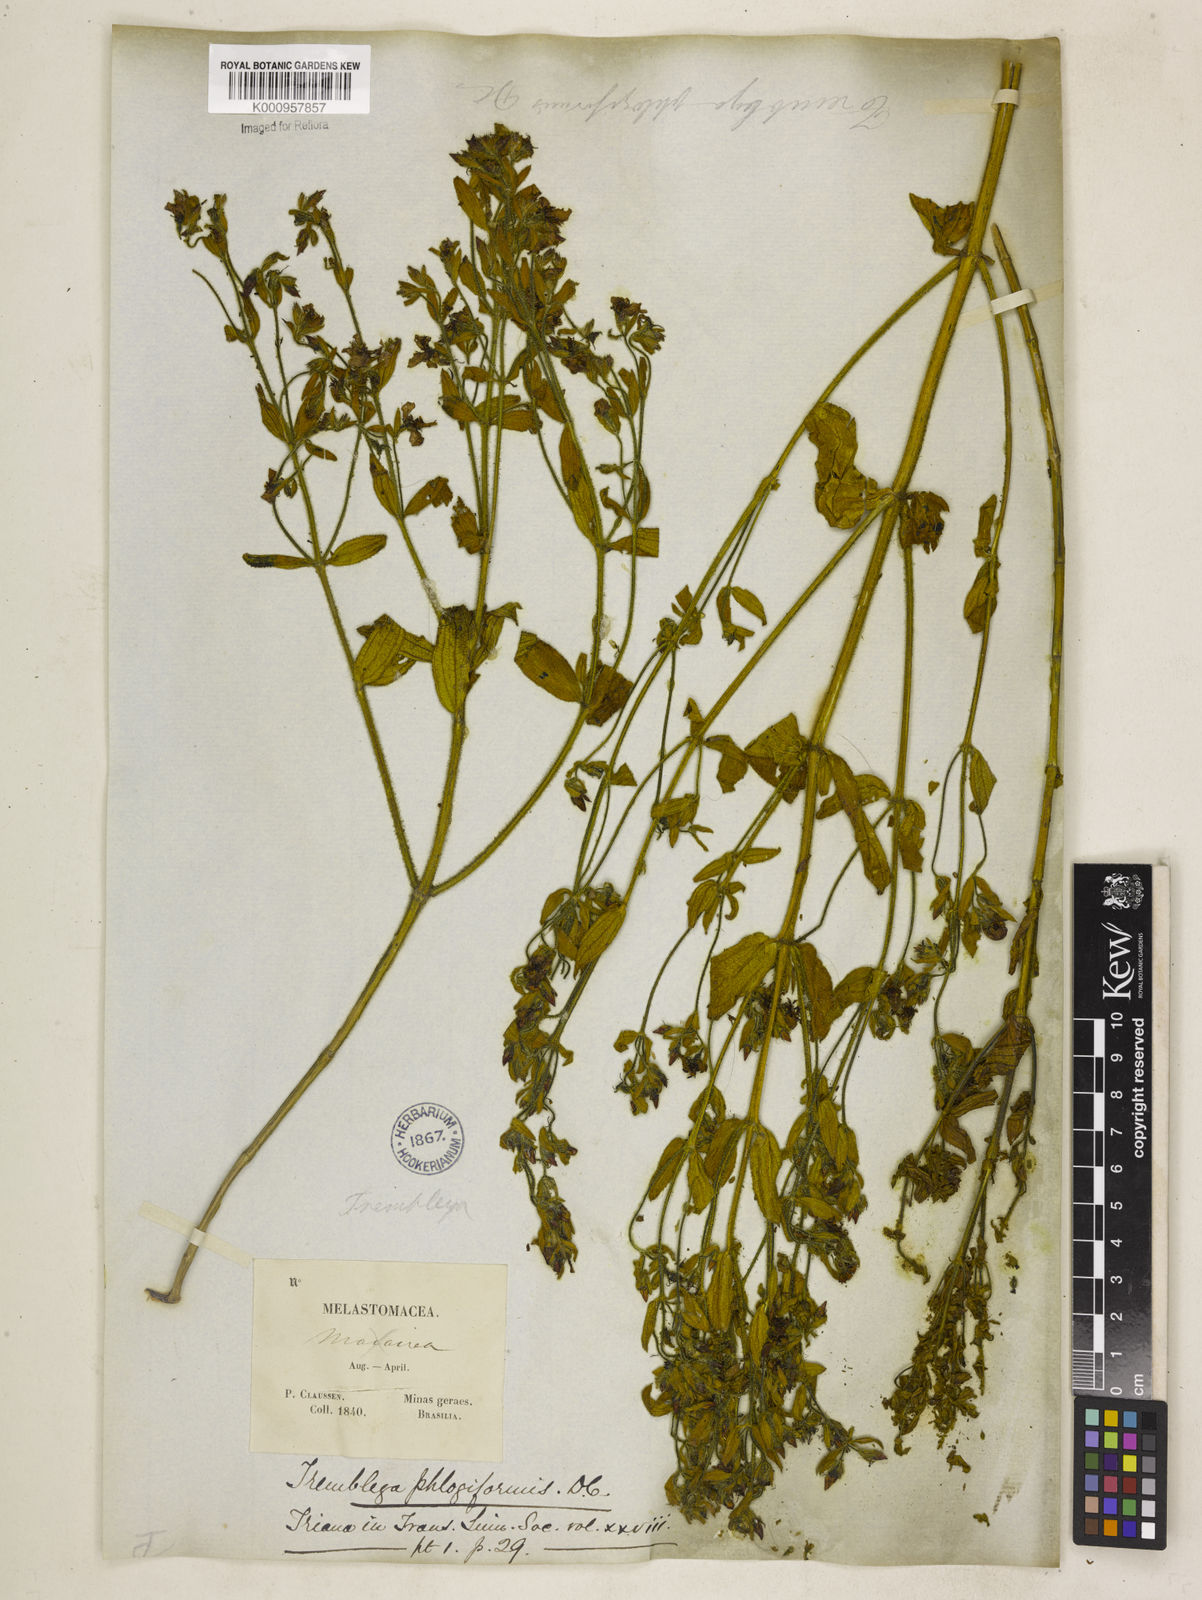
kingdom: Plantae
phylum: Tracheophyta
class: Magnoliopsida
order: Myrtales
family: Melastomataceae
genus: Microlicia
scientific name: Microlicia phlogiformis
